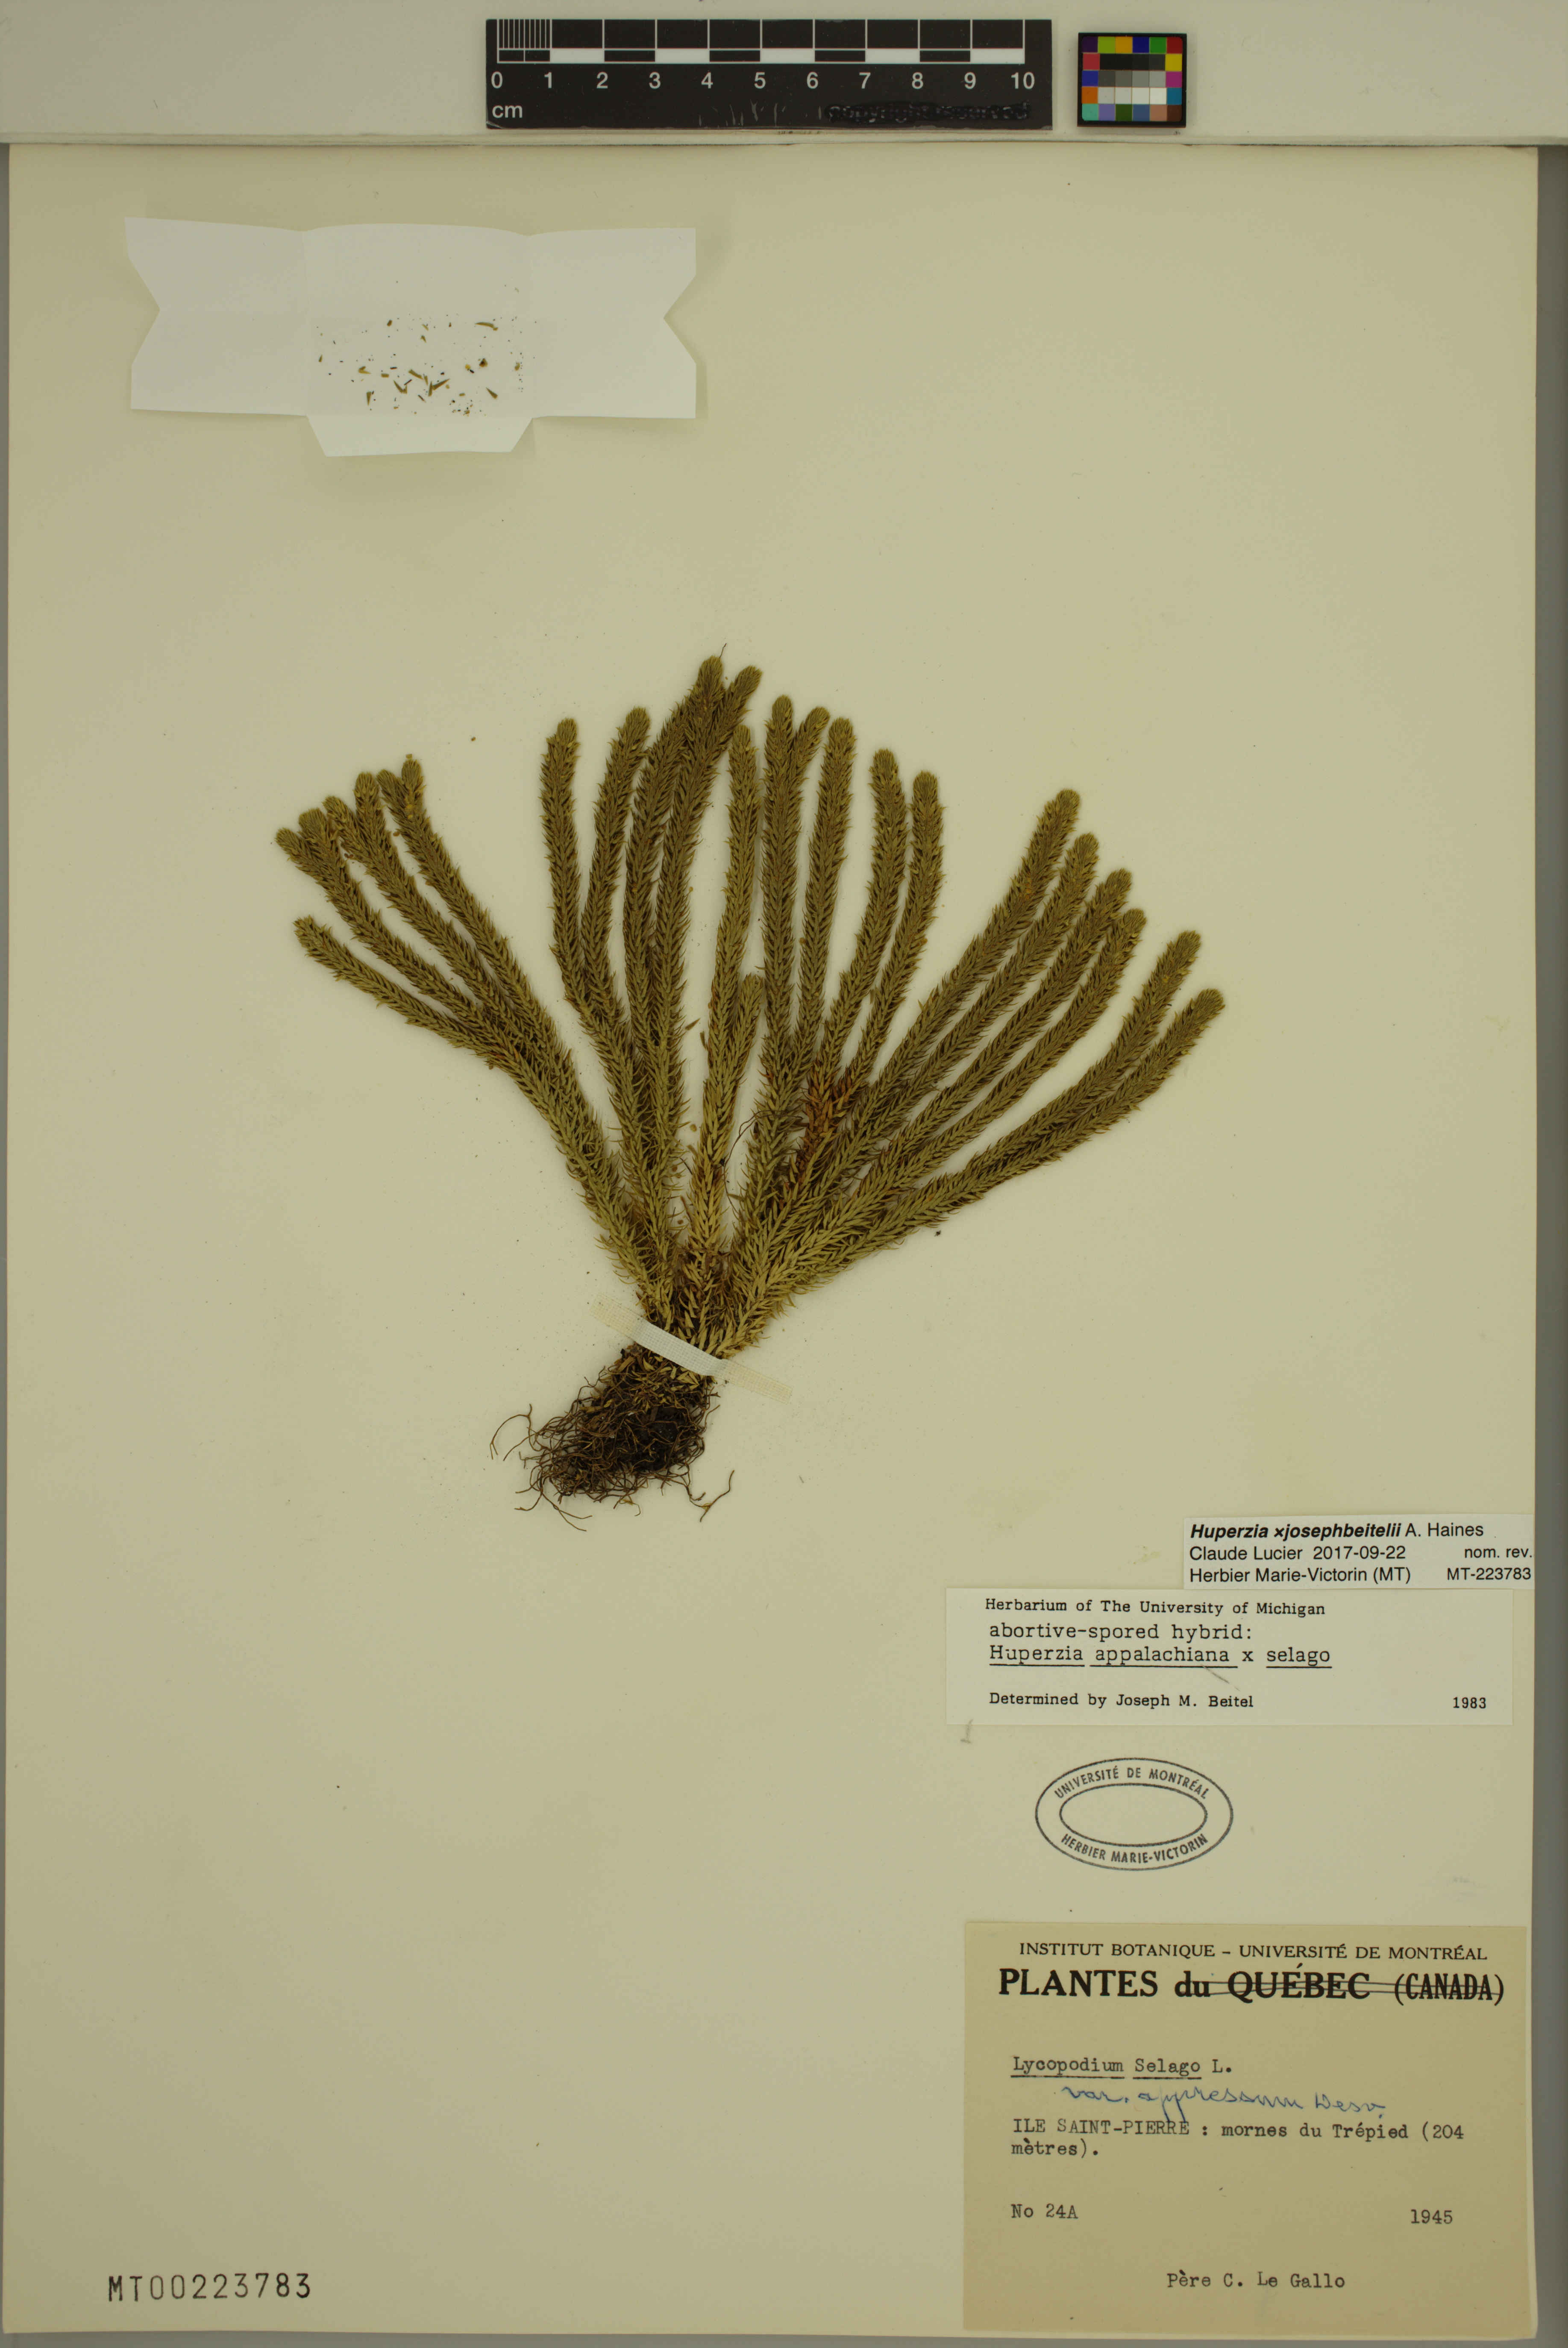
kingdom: Plantae
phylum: Tracheophyta
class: Lycopodiopsida
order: Lycopodiales
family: Lycopodiaceae
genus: Huperzia
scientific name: Huperzia josephbeitelii
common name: Beitel's clubmoss
